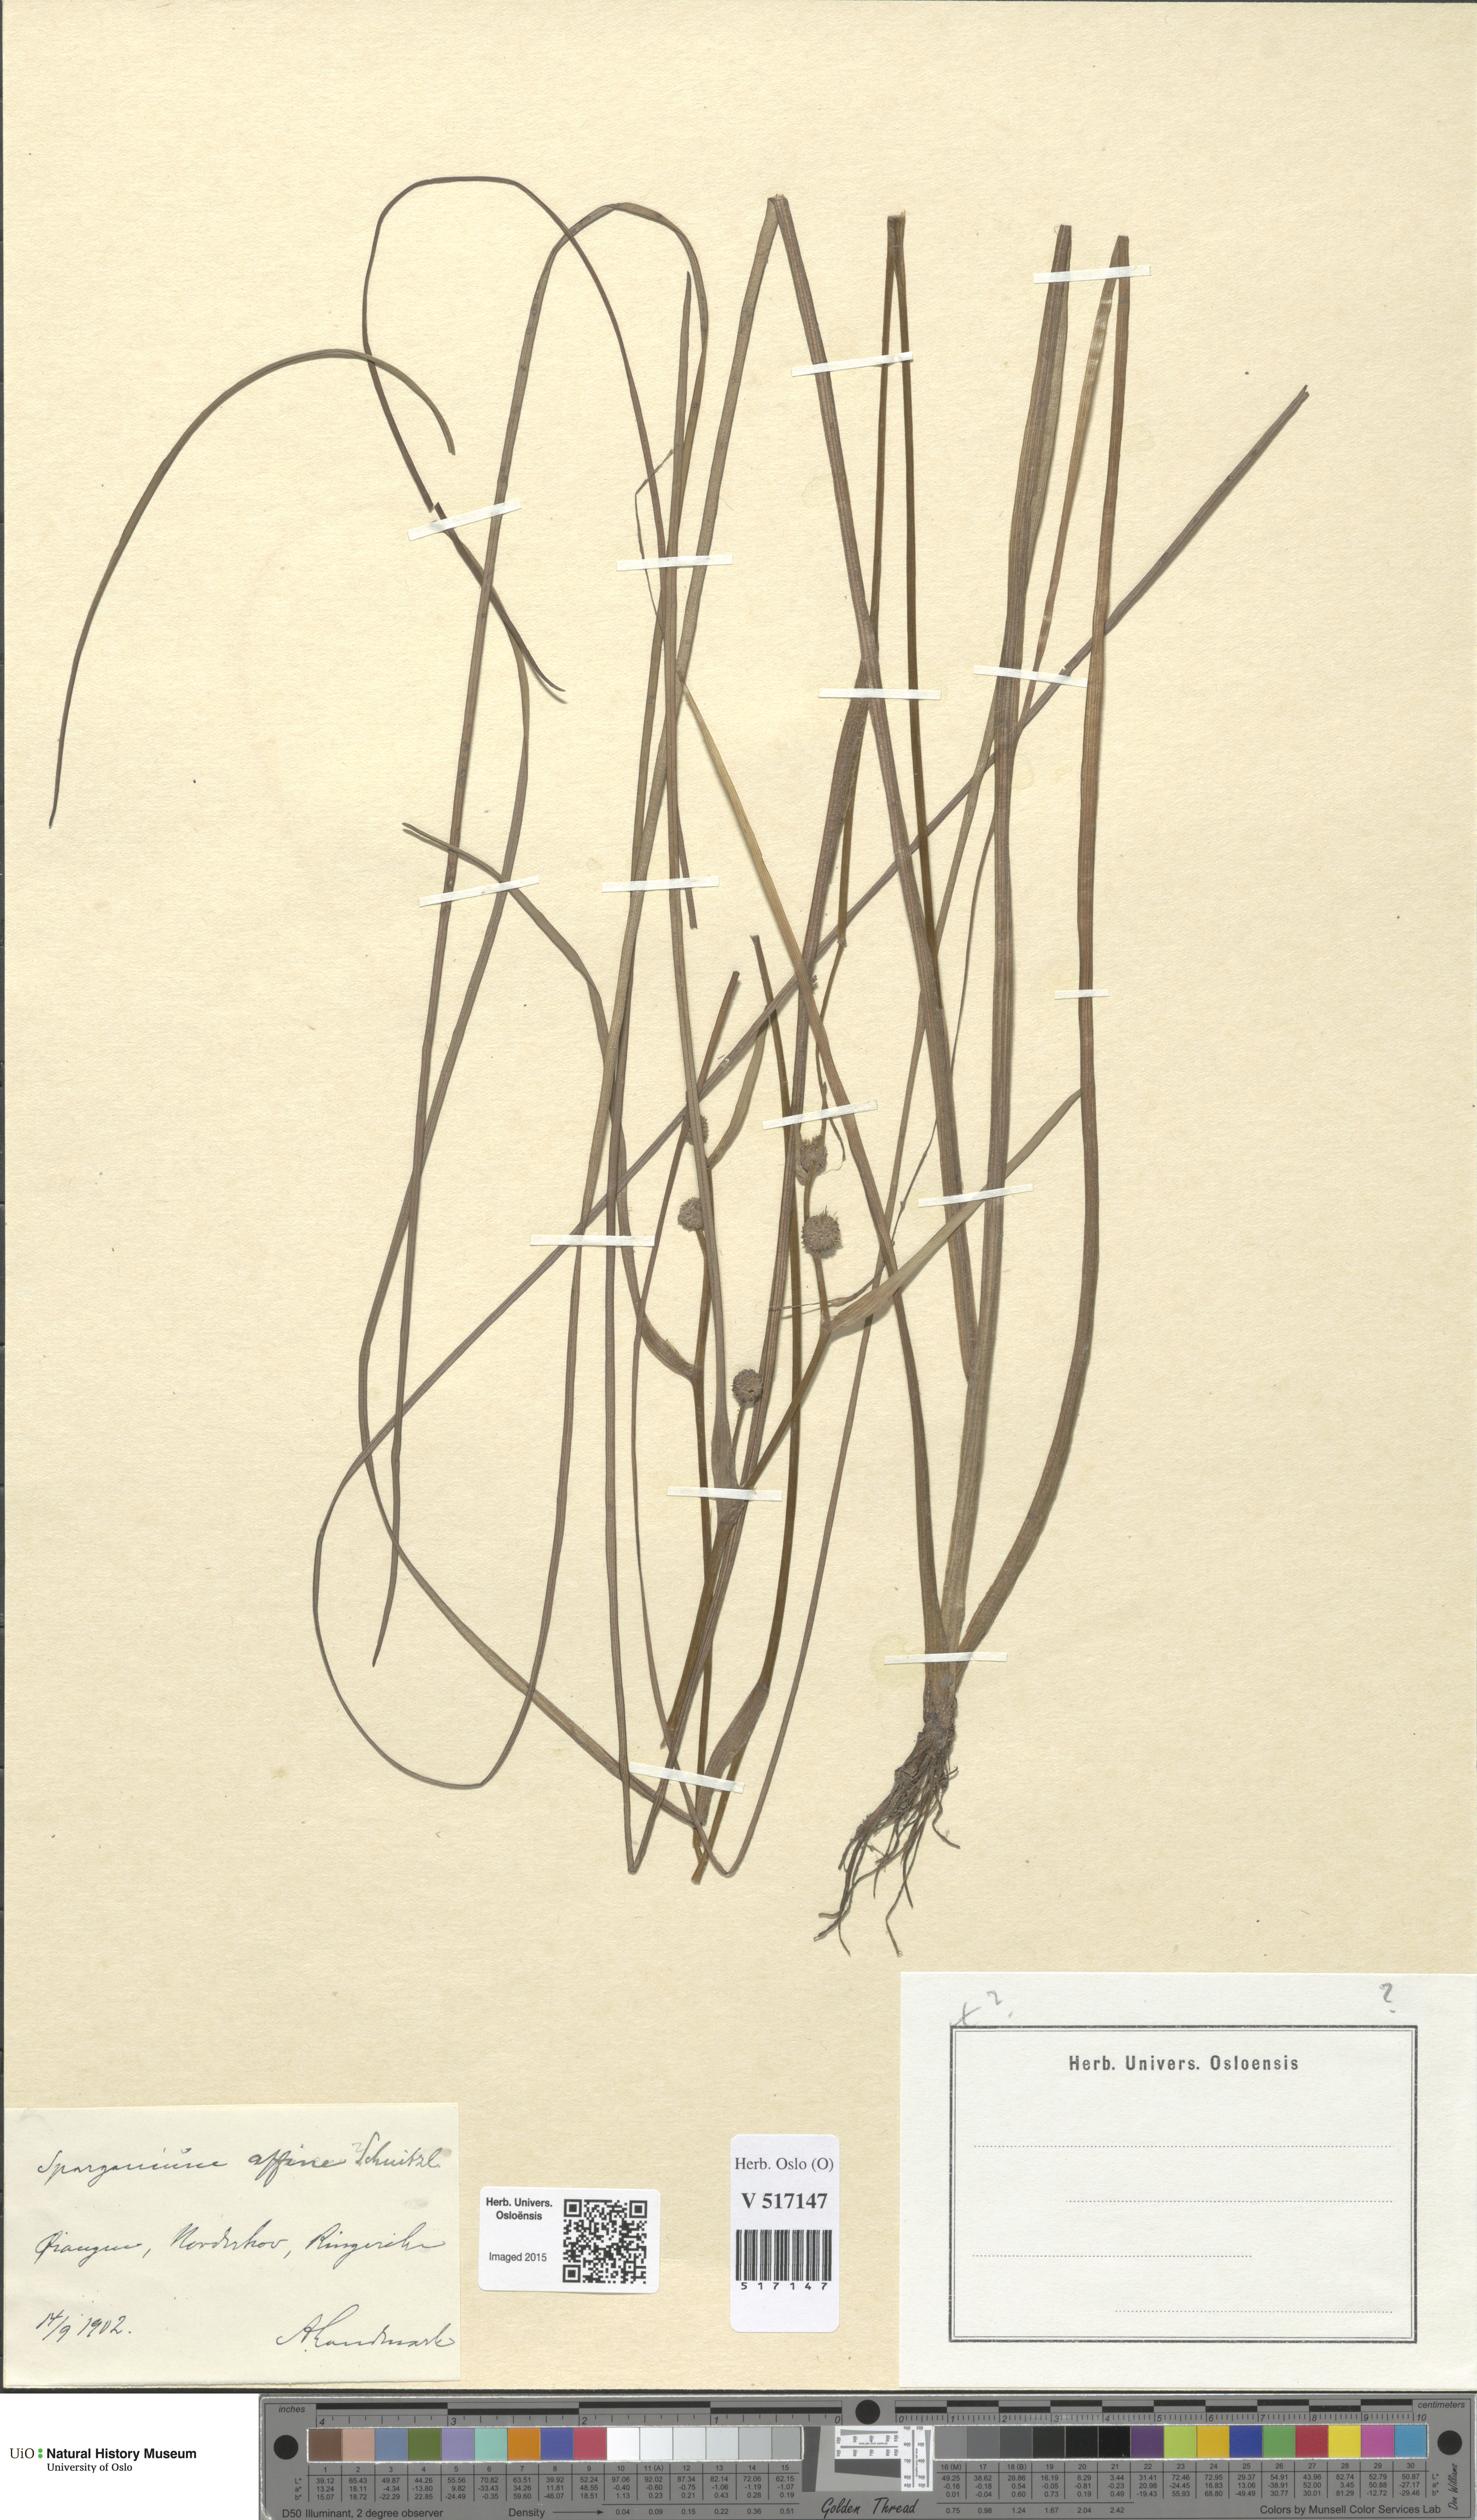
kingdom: Plantae
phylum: Tracheophyta
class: Liliopsida
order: Poales
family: Typhaceae
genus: Sparganium
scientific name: Sparganium angustifolium
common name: Floating bur-reed
